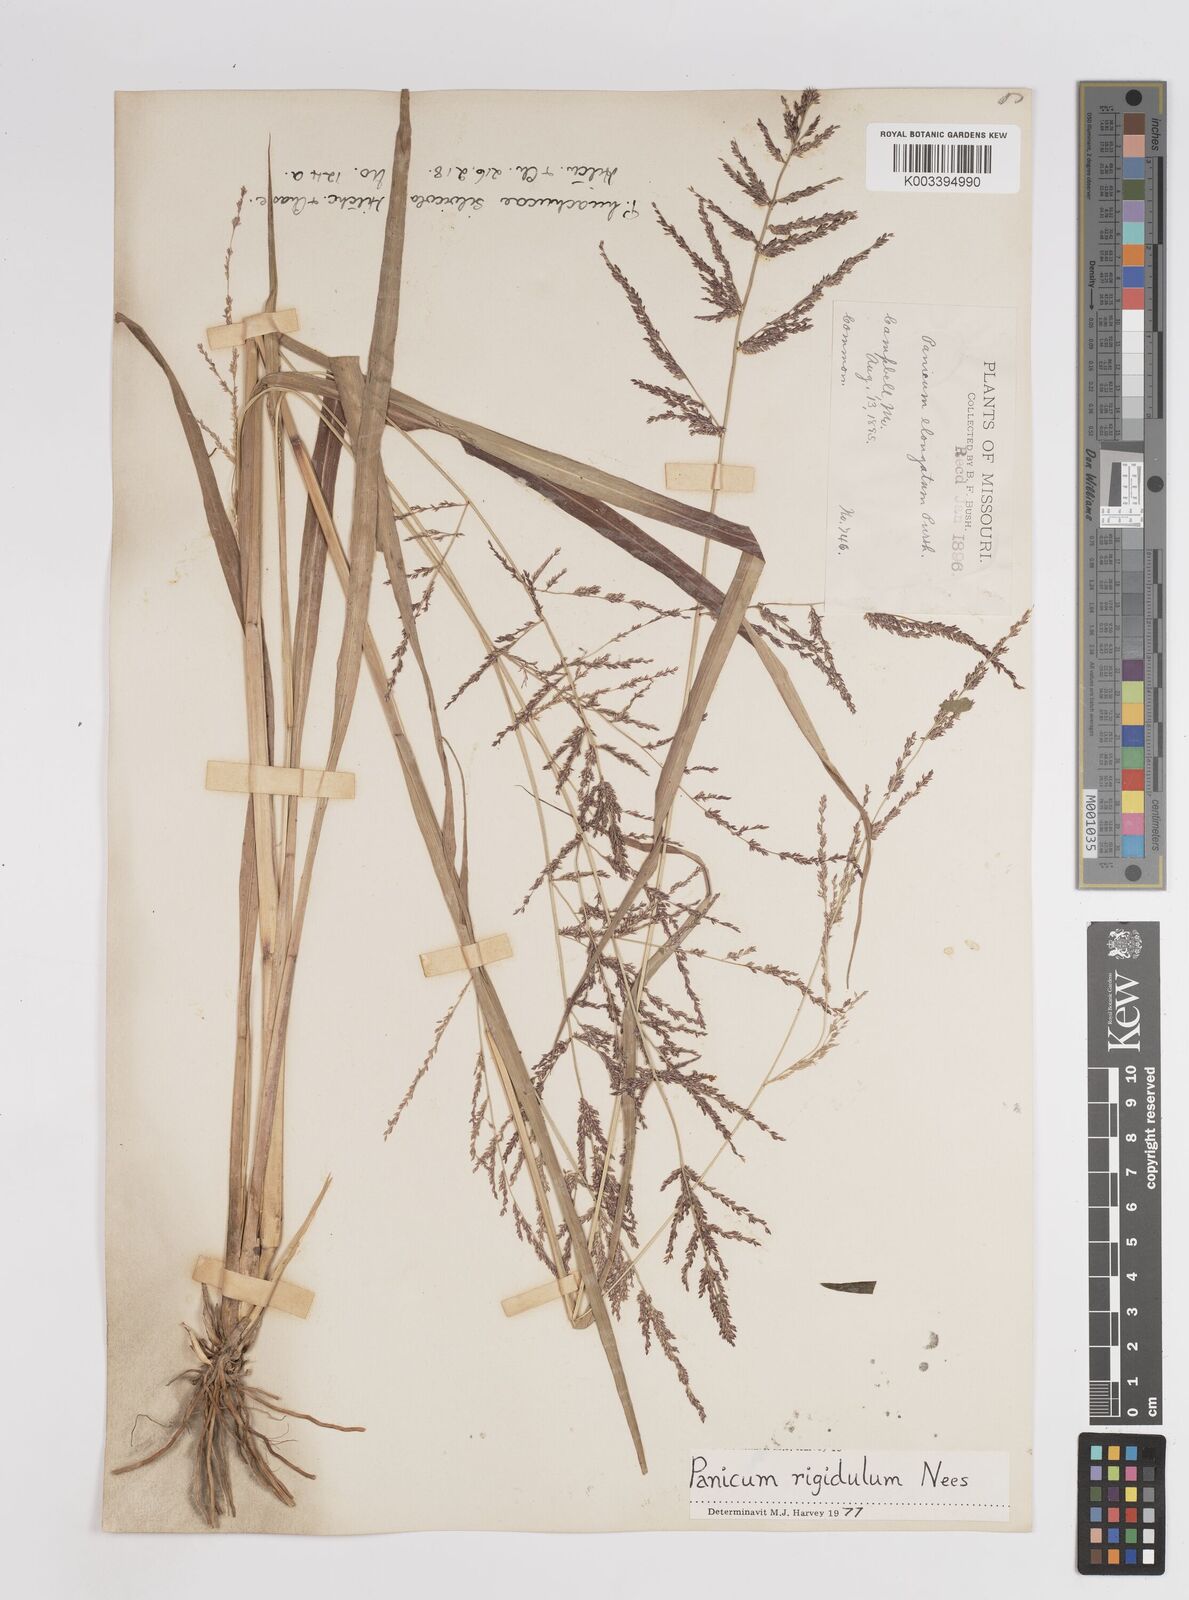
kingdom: Plantae
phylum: Tracheophyta
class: Liliopsida
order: Poales
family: Poaceae
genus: Coleataenia
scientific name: Coleataenia rigidula
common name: Redtop panicgrass
